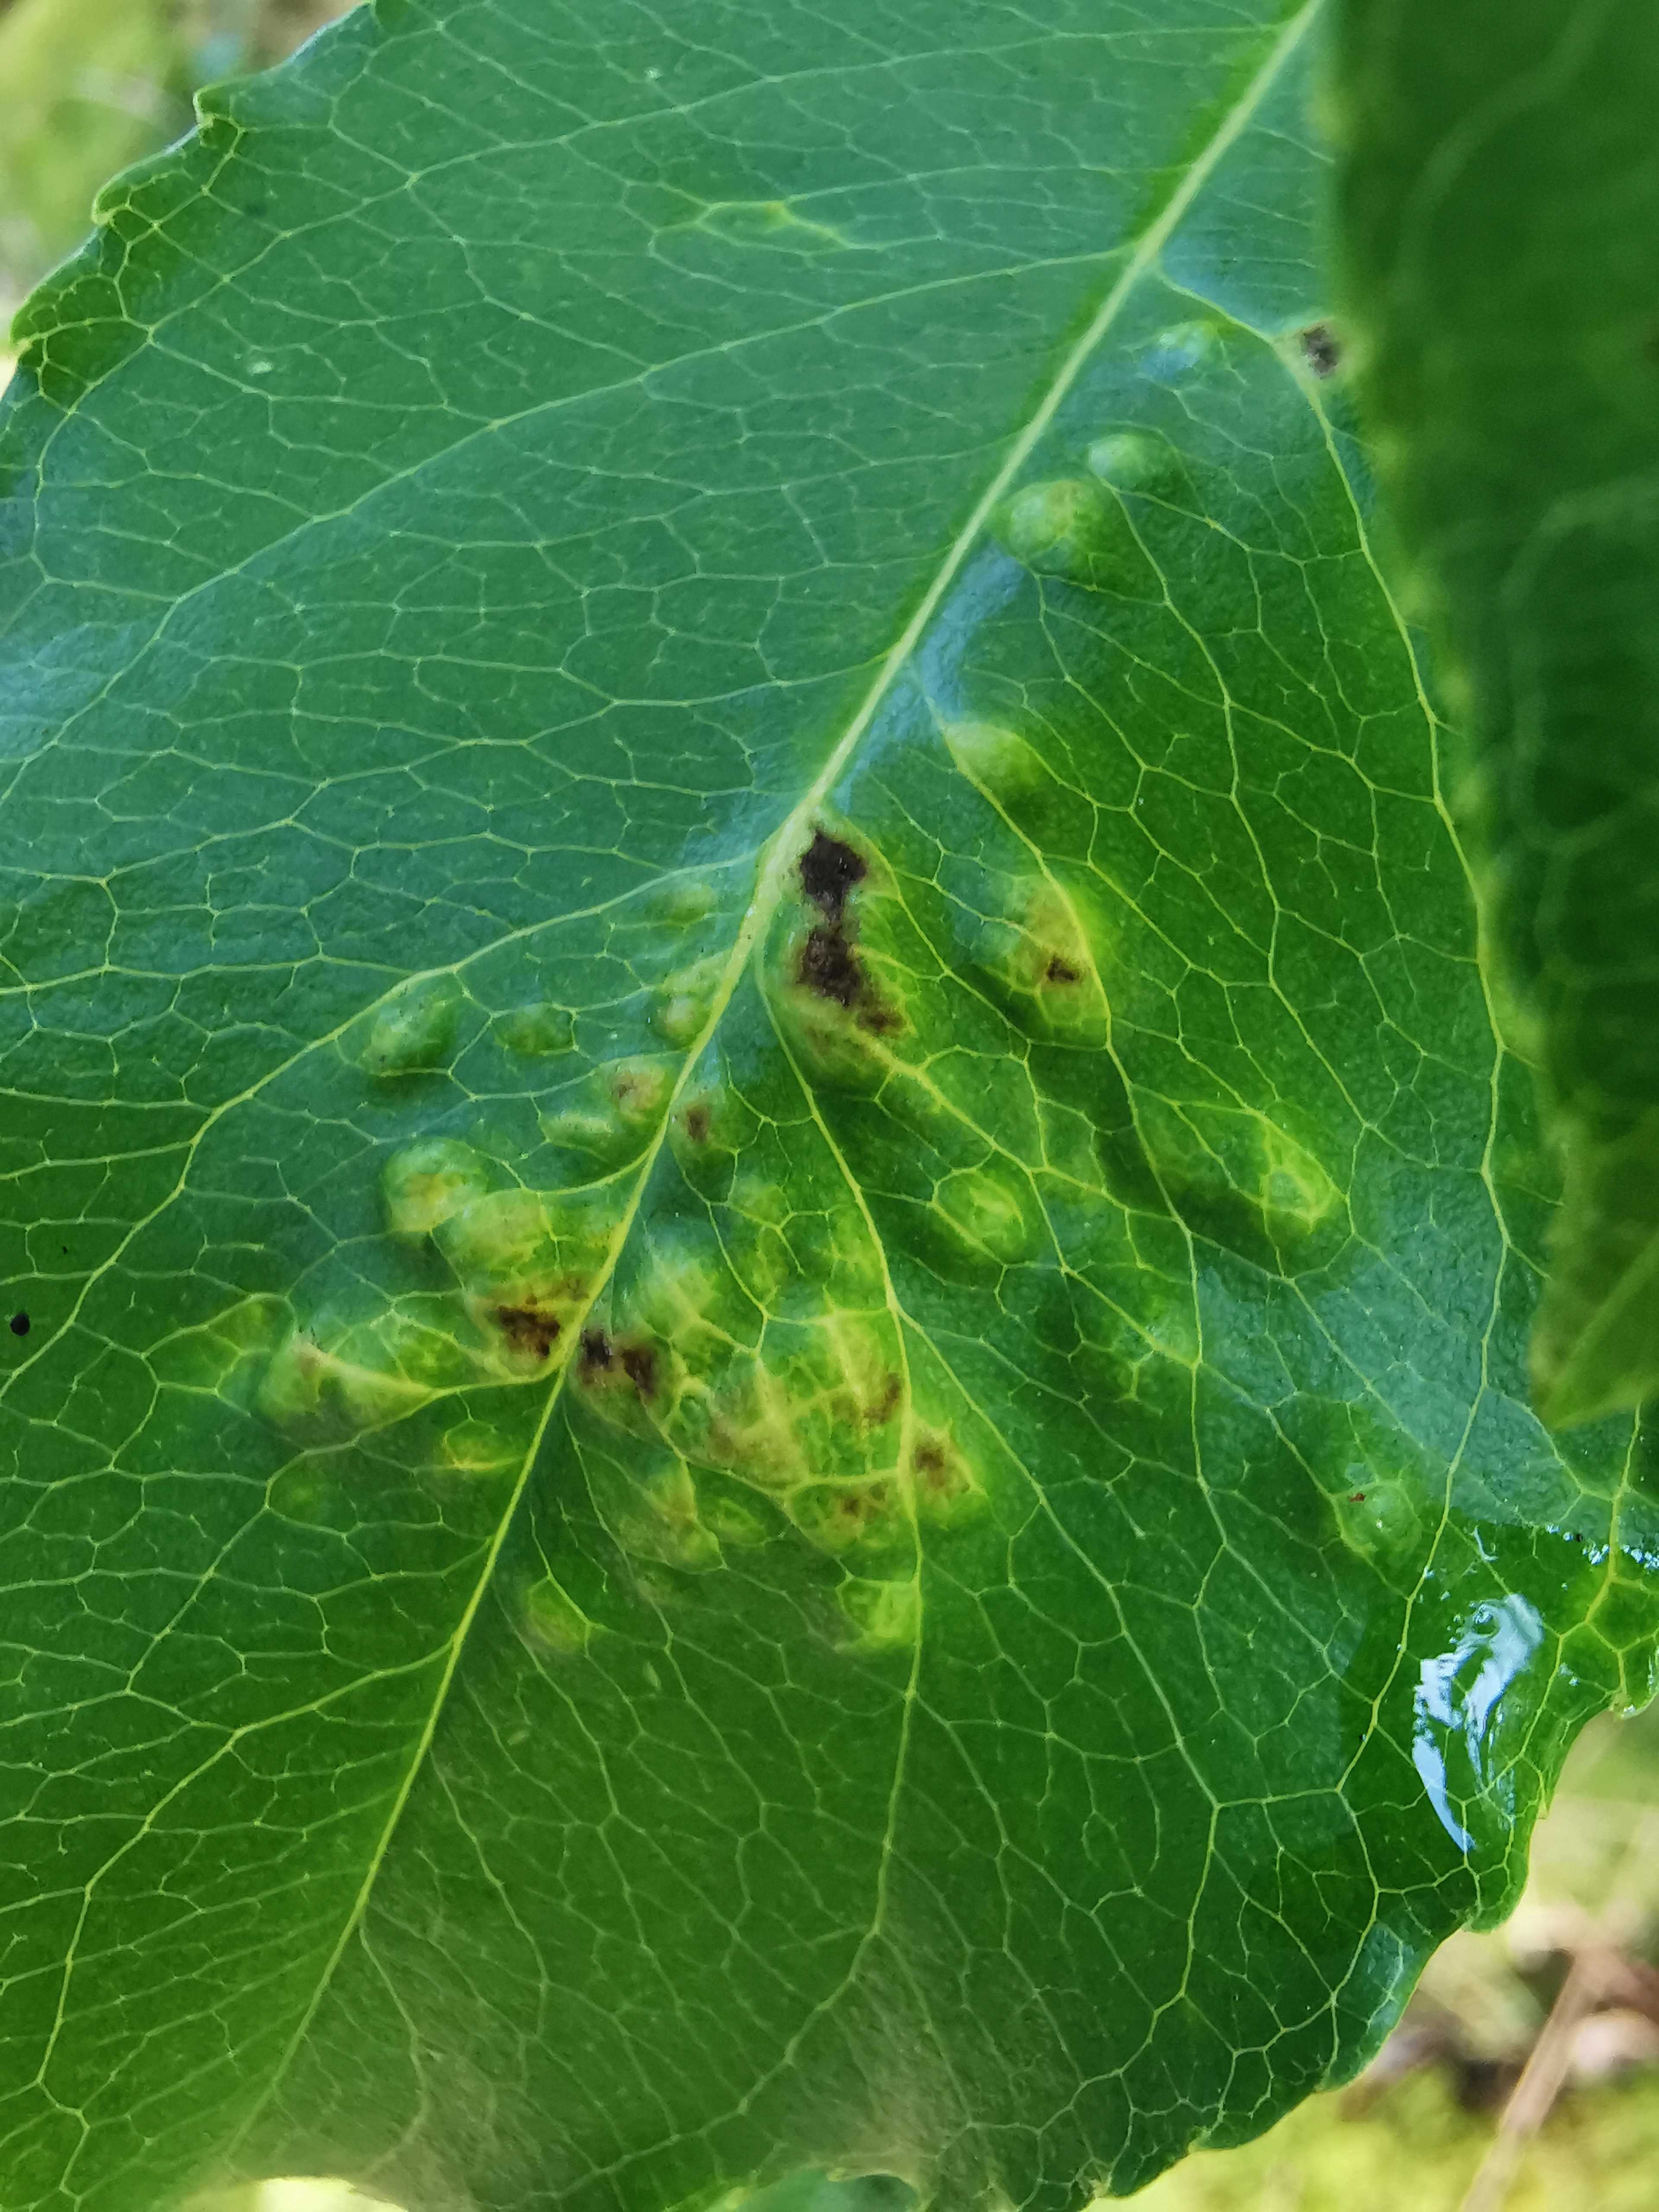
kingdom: Fungi
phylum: Ascomycota
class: Taphrinomycetes
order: Taphrinales
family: Taphrinaceae
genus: Taphrina
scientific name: Taphrina farlowii
